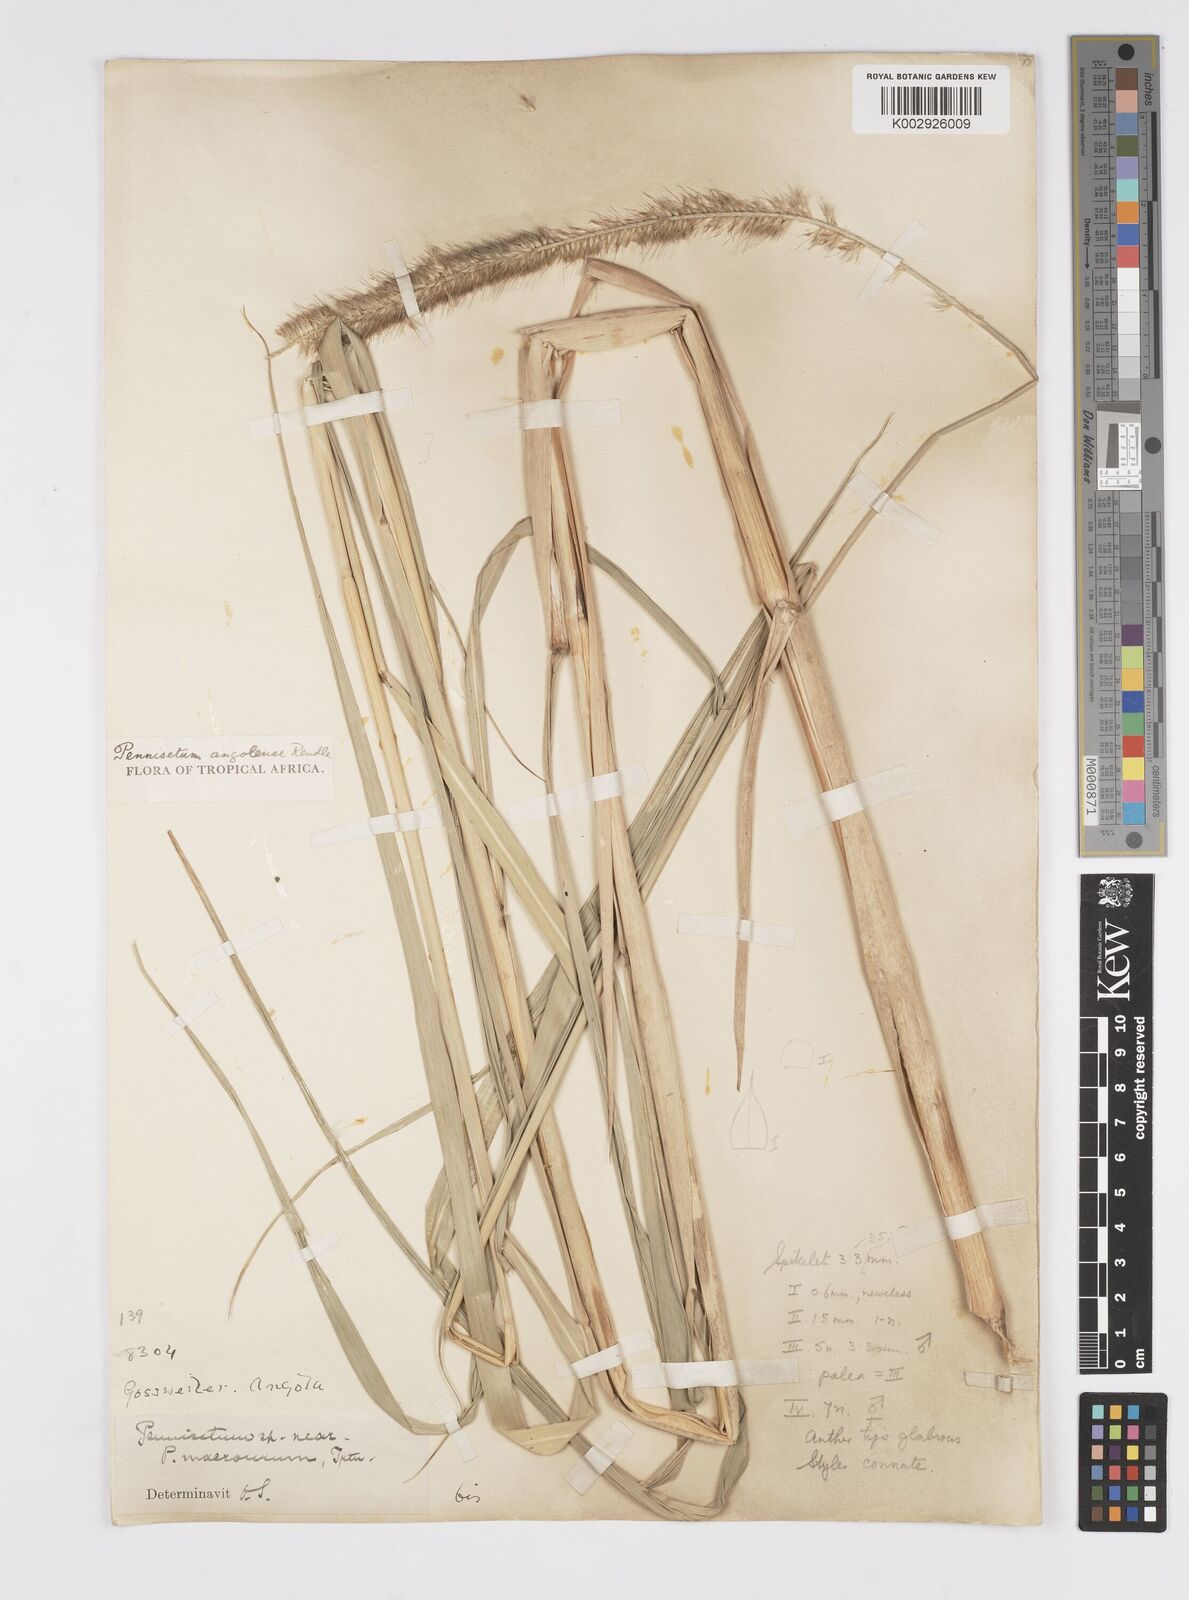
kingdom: Plantae
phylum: Tracheophyta
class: Liliopsida
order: Poales
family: Poaceae
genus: Cenchrus
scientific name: Cenchrus caudatus
